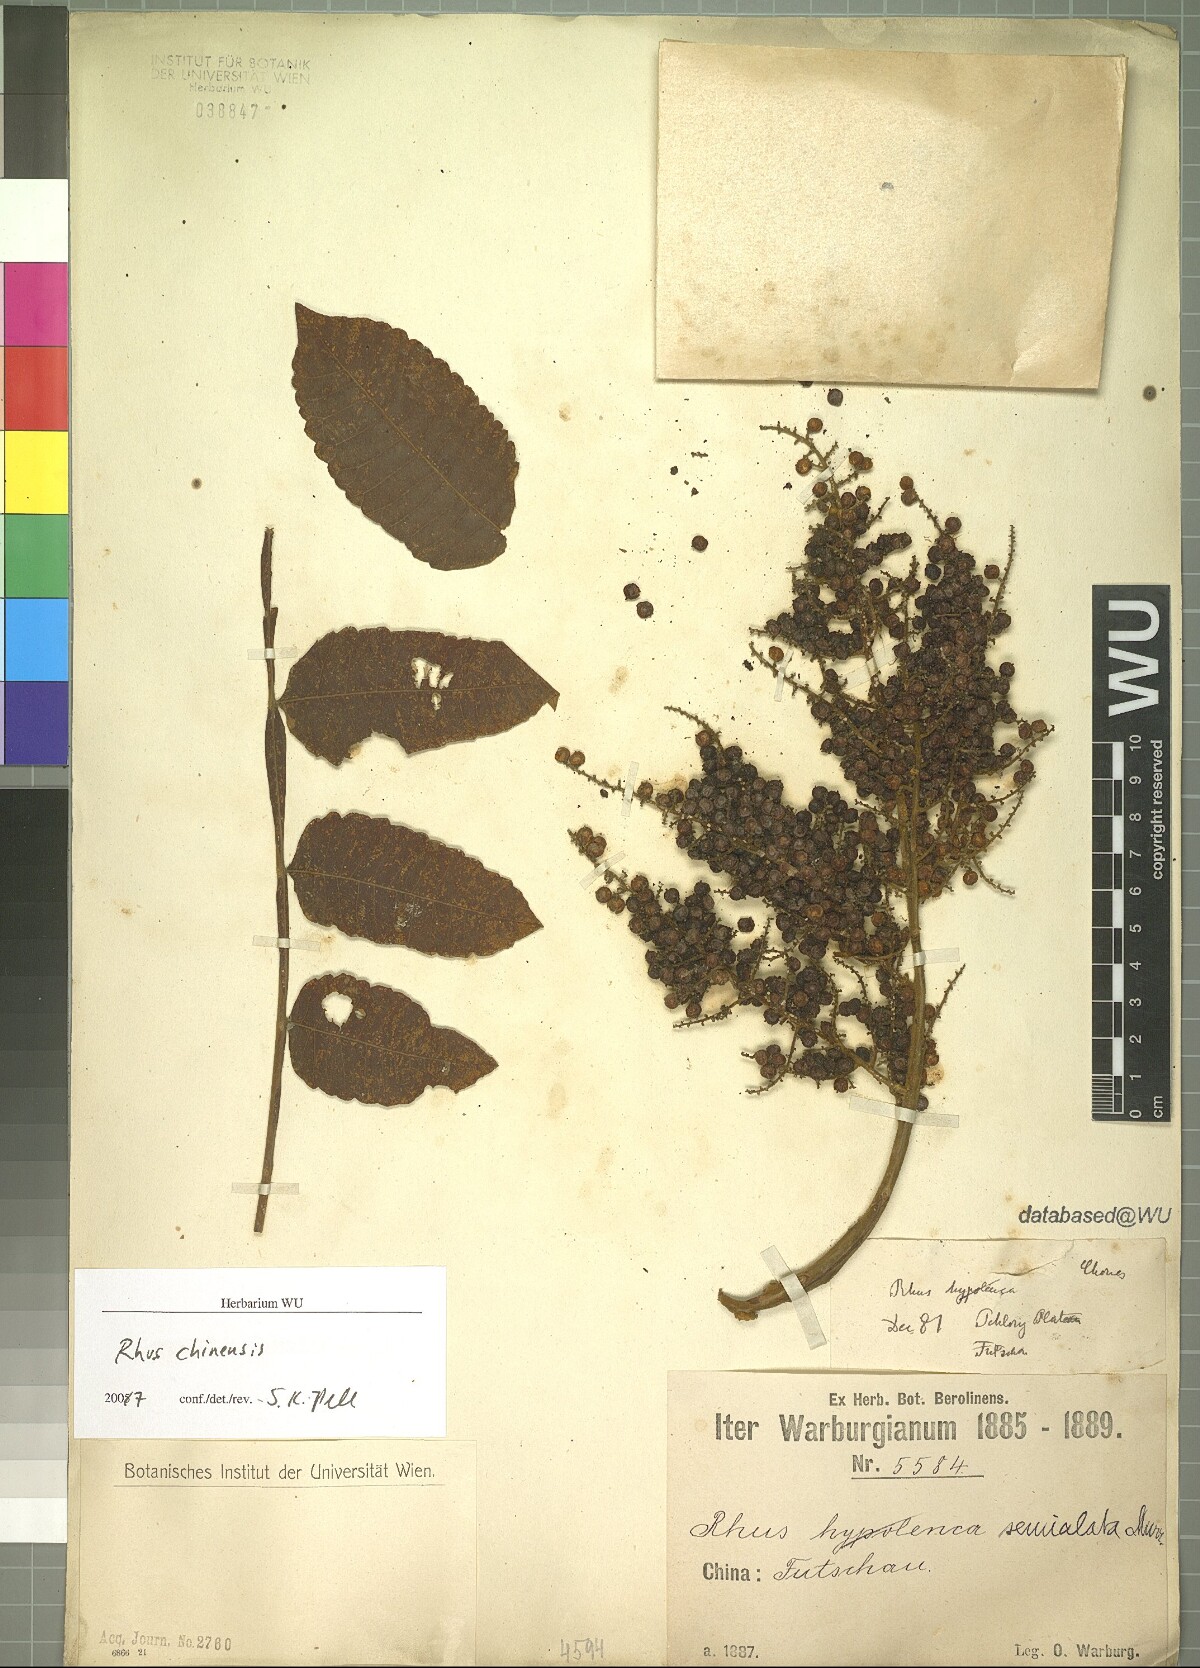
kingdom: Plantae
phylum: Tracheophyta
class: Magnoliopsida
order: Sapindales
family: Anacardiaceae
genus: Rhus
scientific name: Rhus chinensis
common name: Chinese gall
